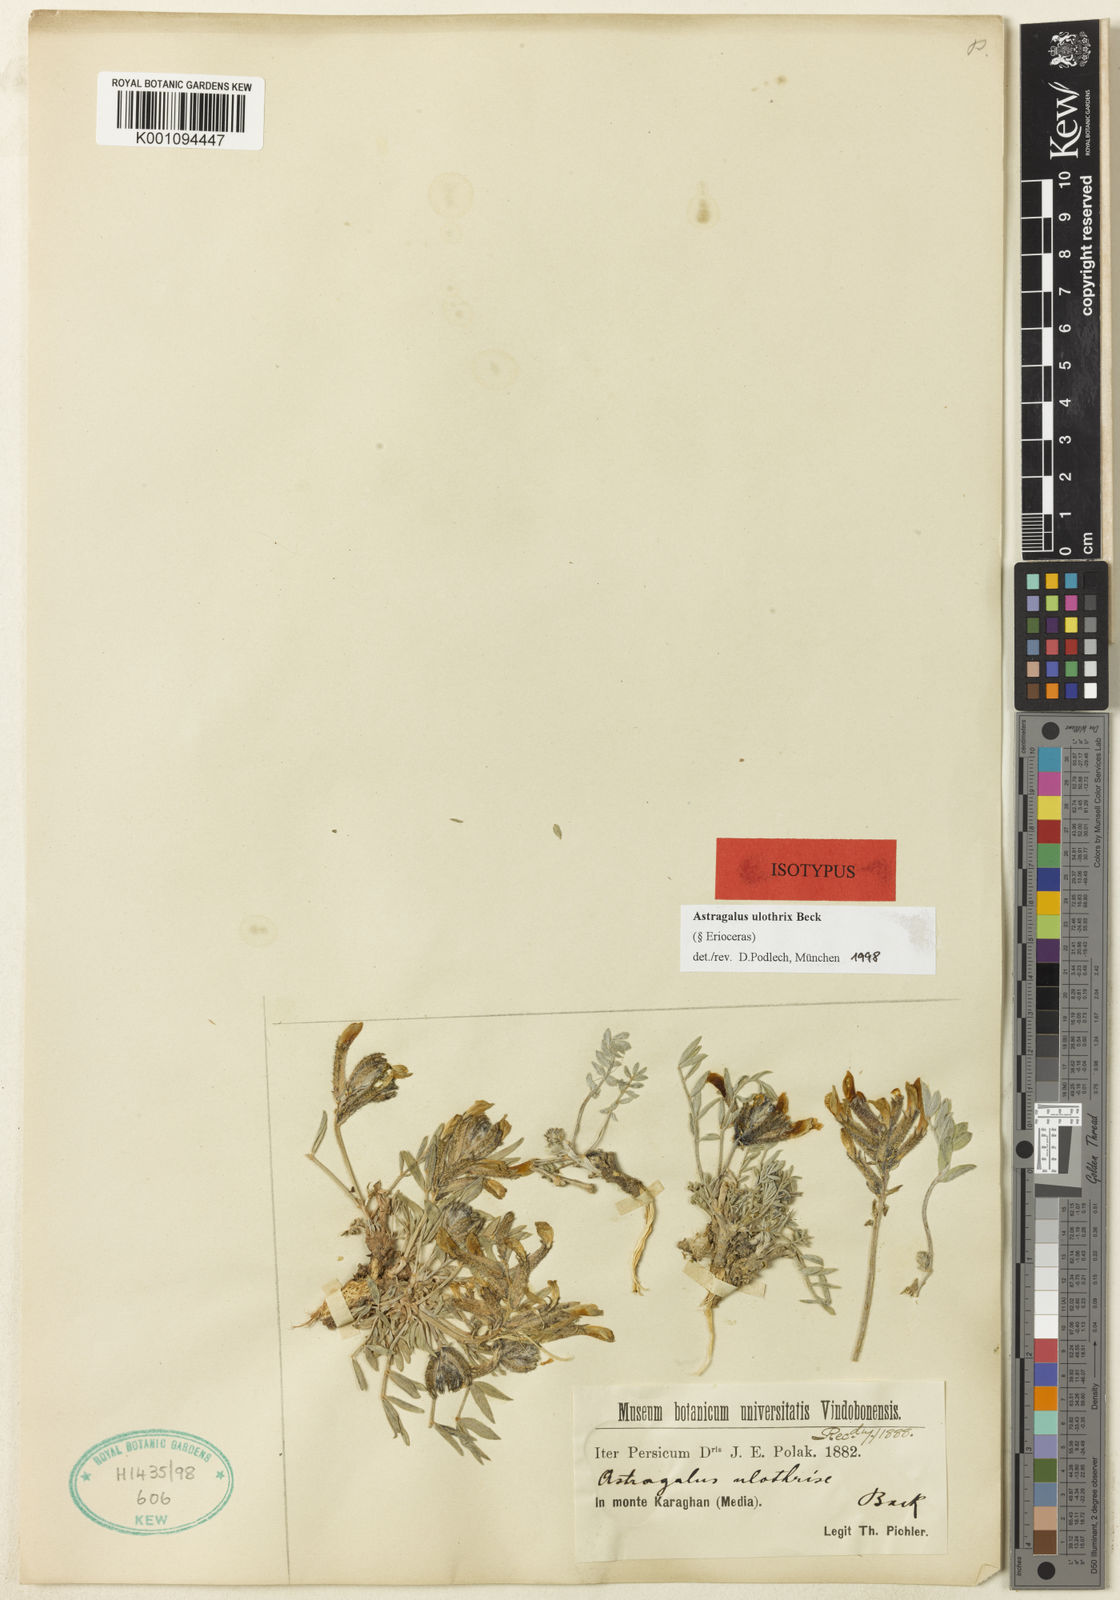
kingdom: Plantae
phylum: Tracheophyta
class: Magnoliopsida
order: Fabales
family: Fabaceae
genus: Astragalus
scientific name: Astragalus
